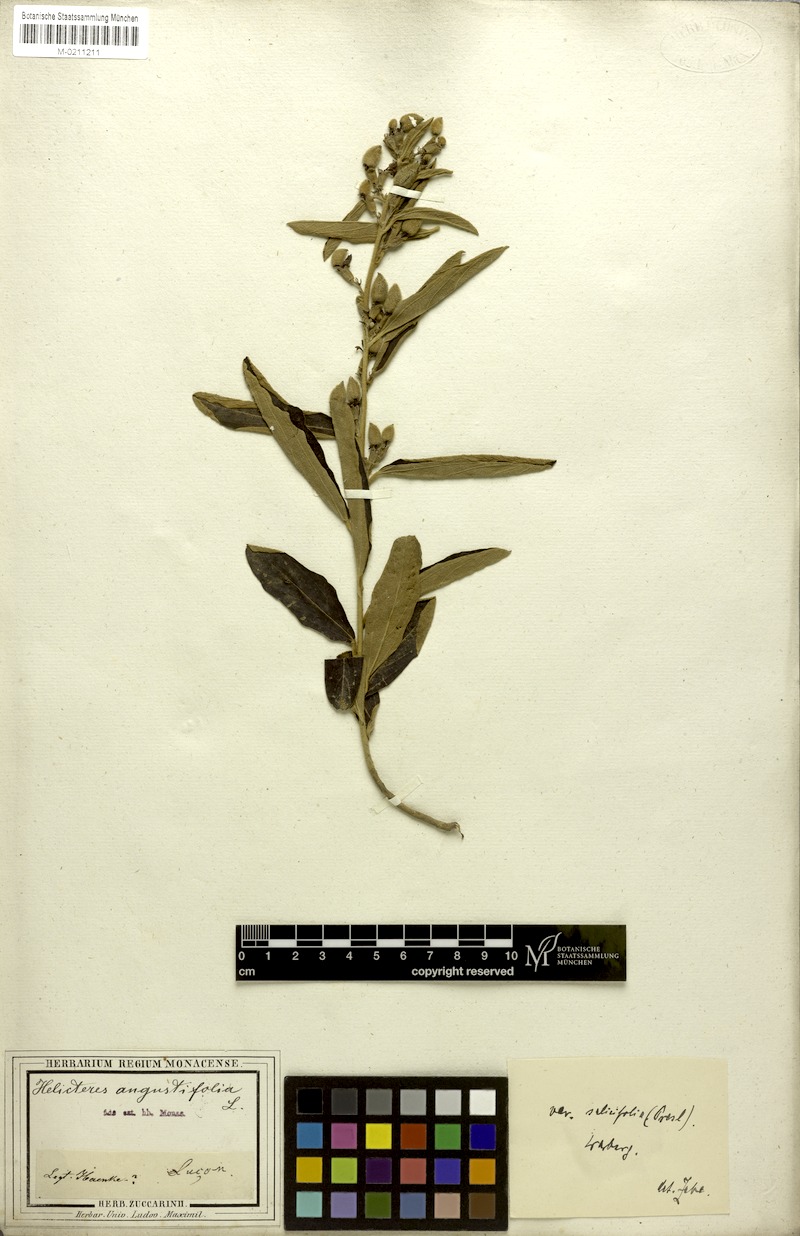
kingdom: Plantae
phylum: Tracheophyta
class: Magnoliopsida
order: Malvales
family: Malvaceae
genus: Helicteres
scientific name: Helicteres angustifolia
